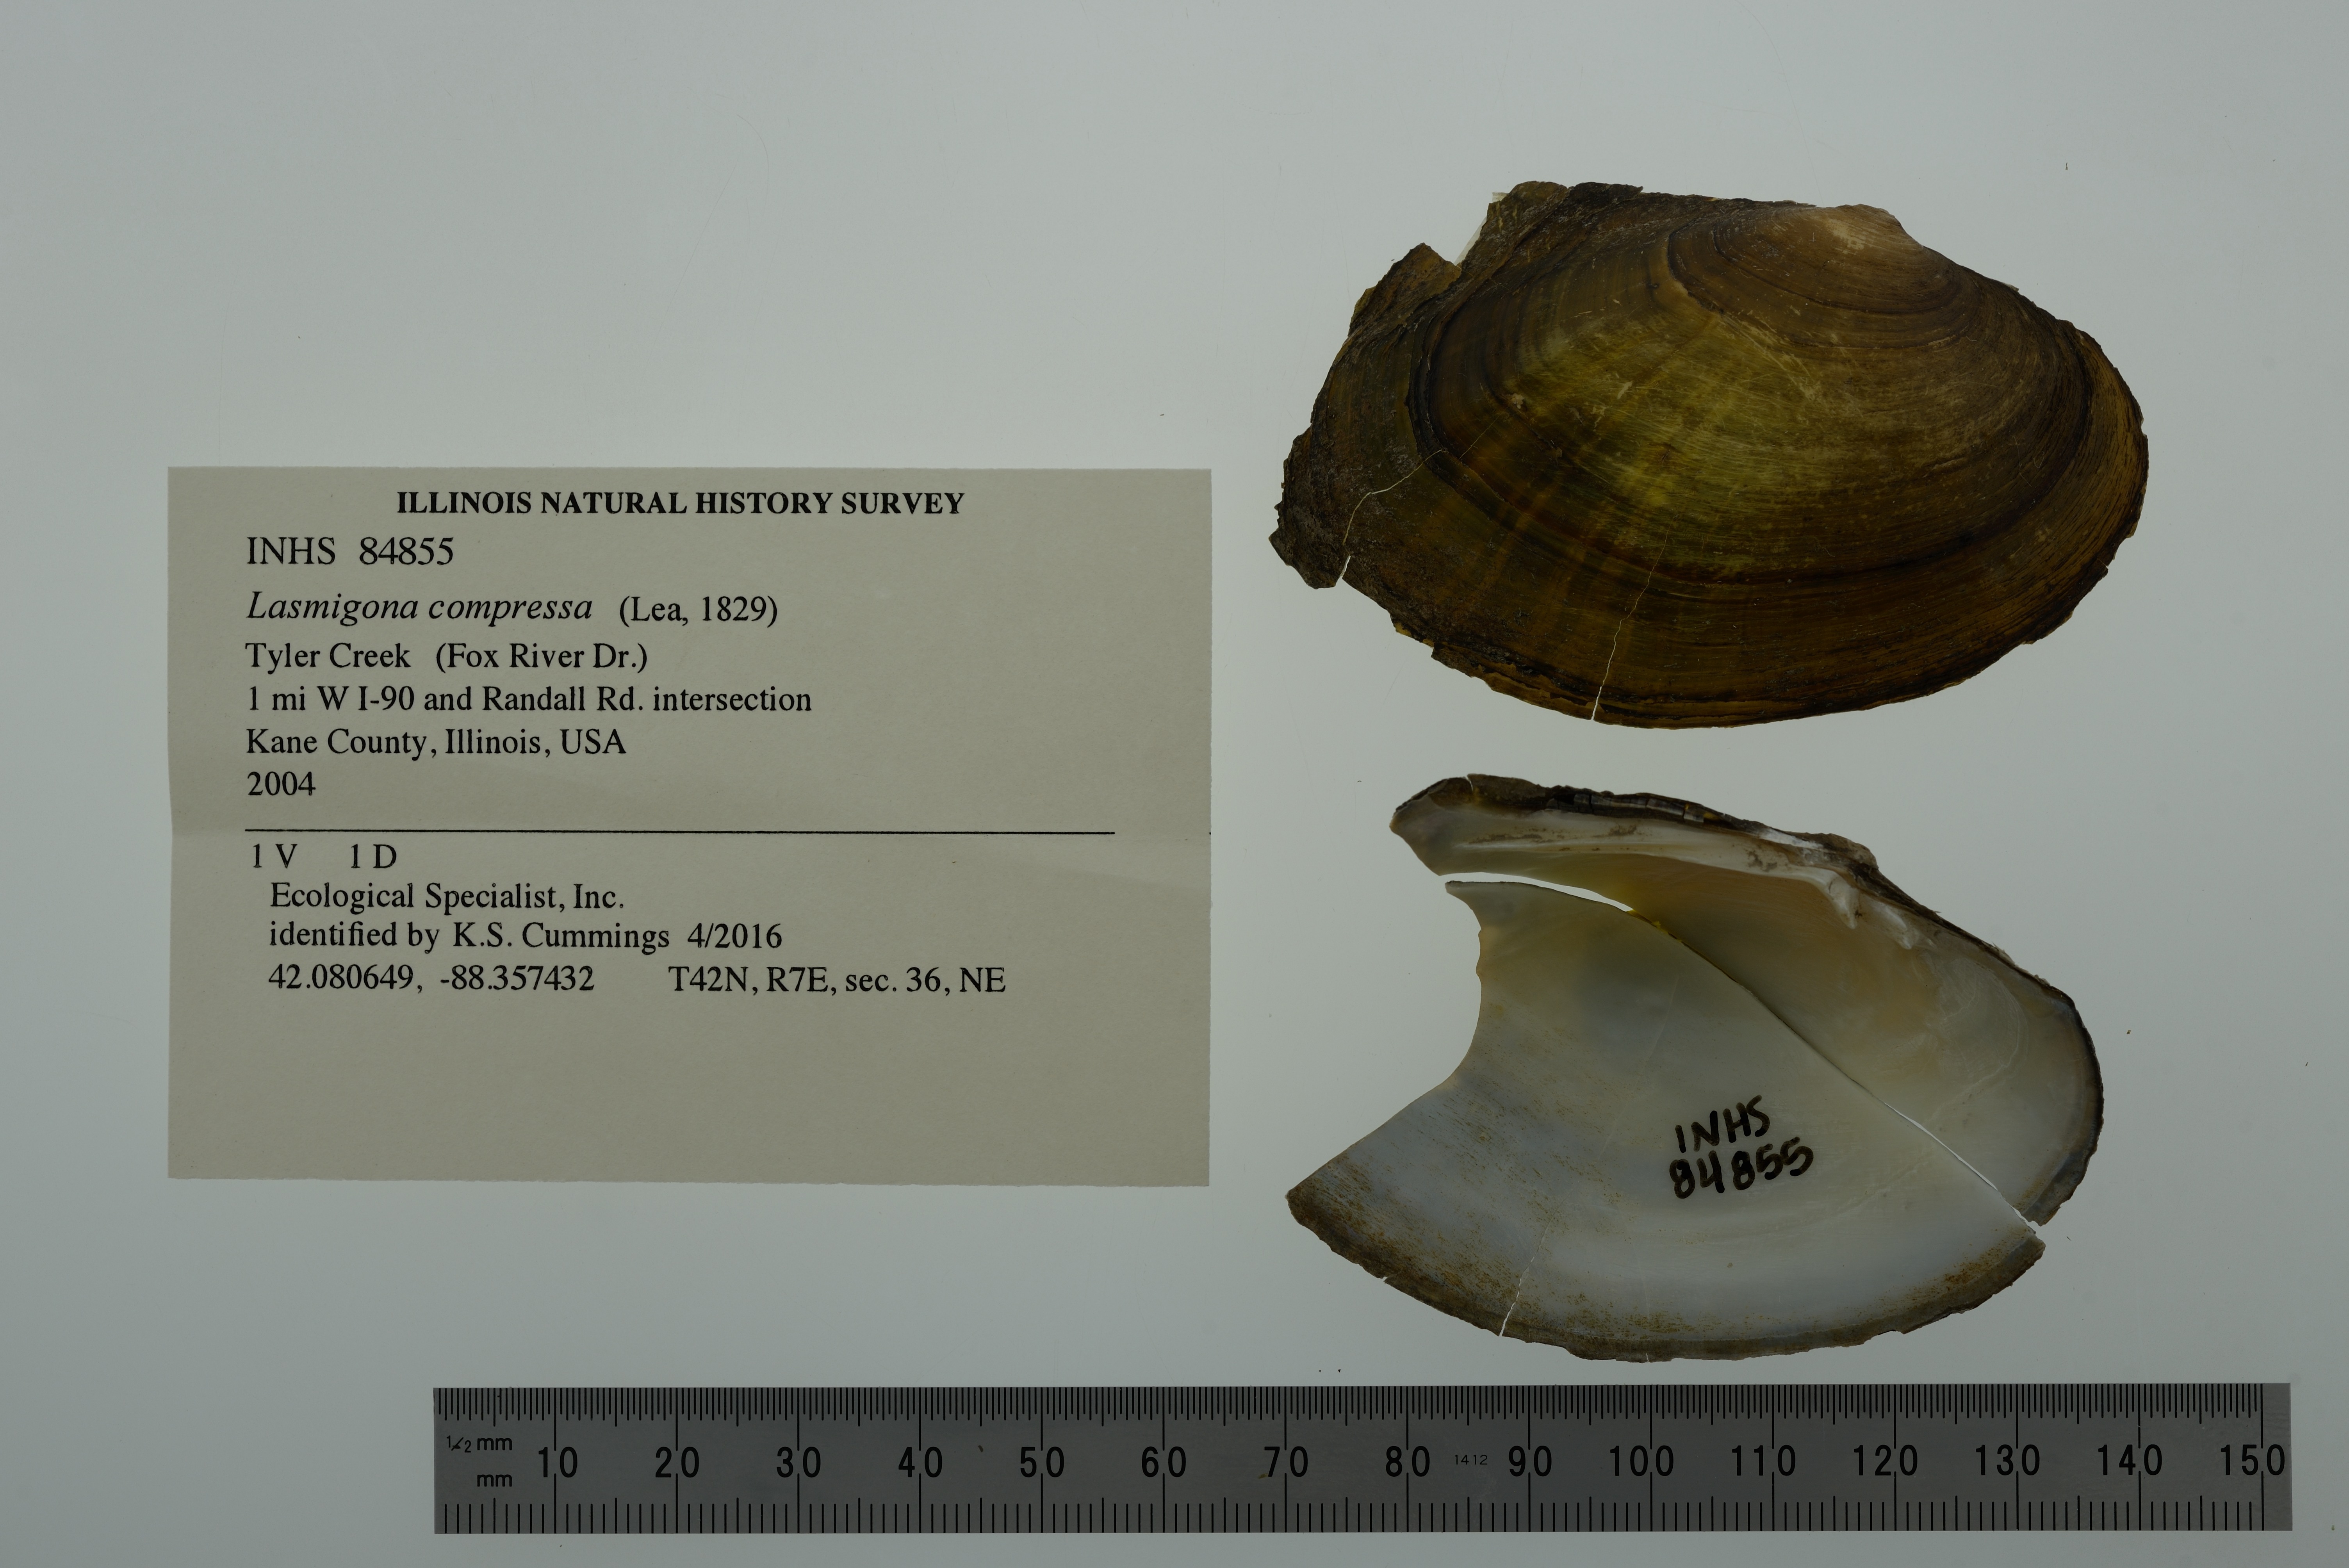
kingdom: Animalia
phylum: Mollusca
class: Bivalvia
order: Unionida
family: Unionidae
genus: Lasmigona
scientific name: Lasmigona compressa
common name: Creek heelsplitter
